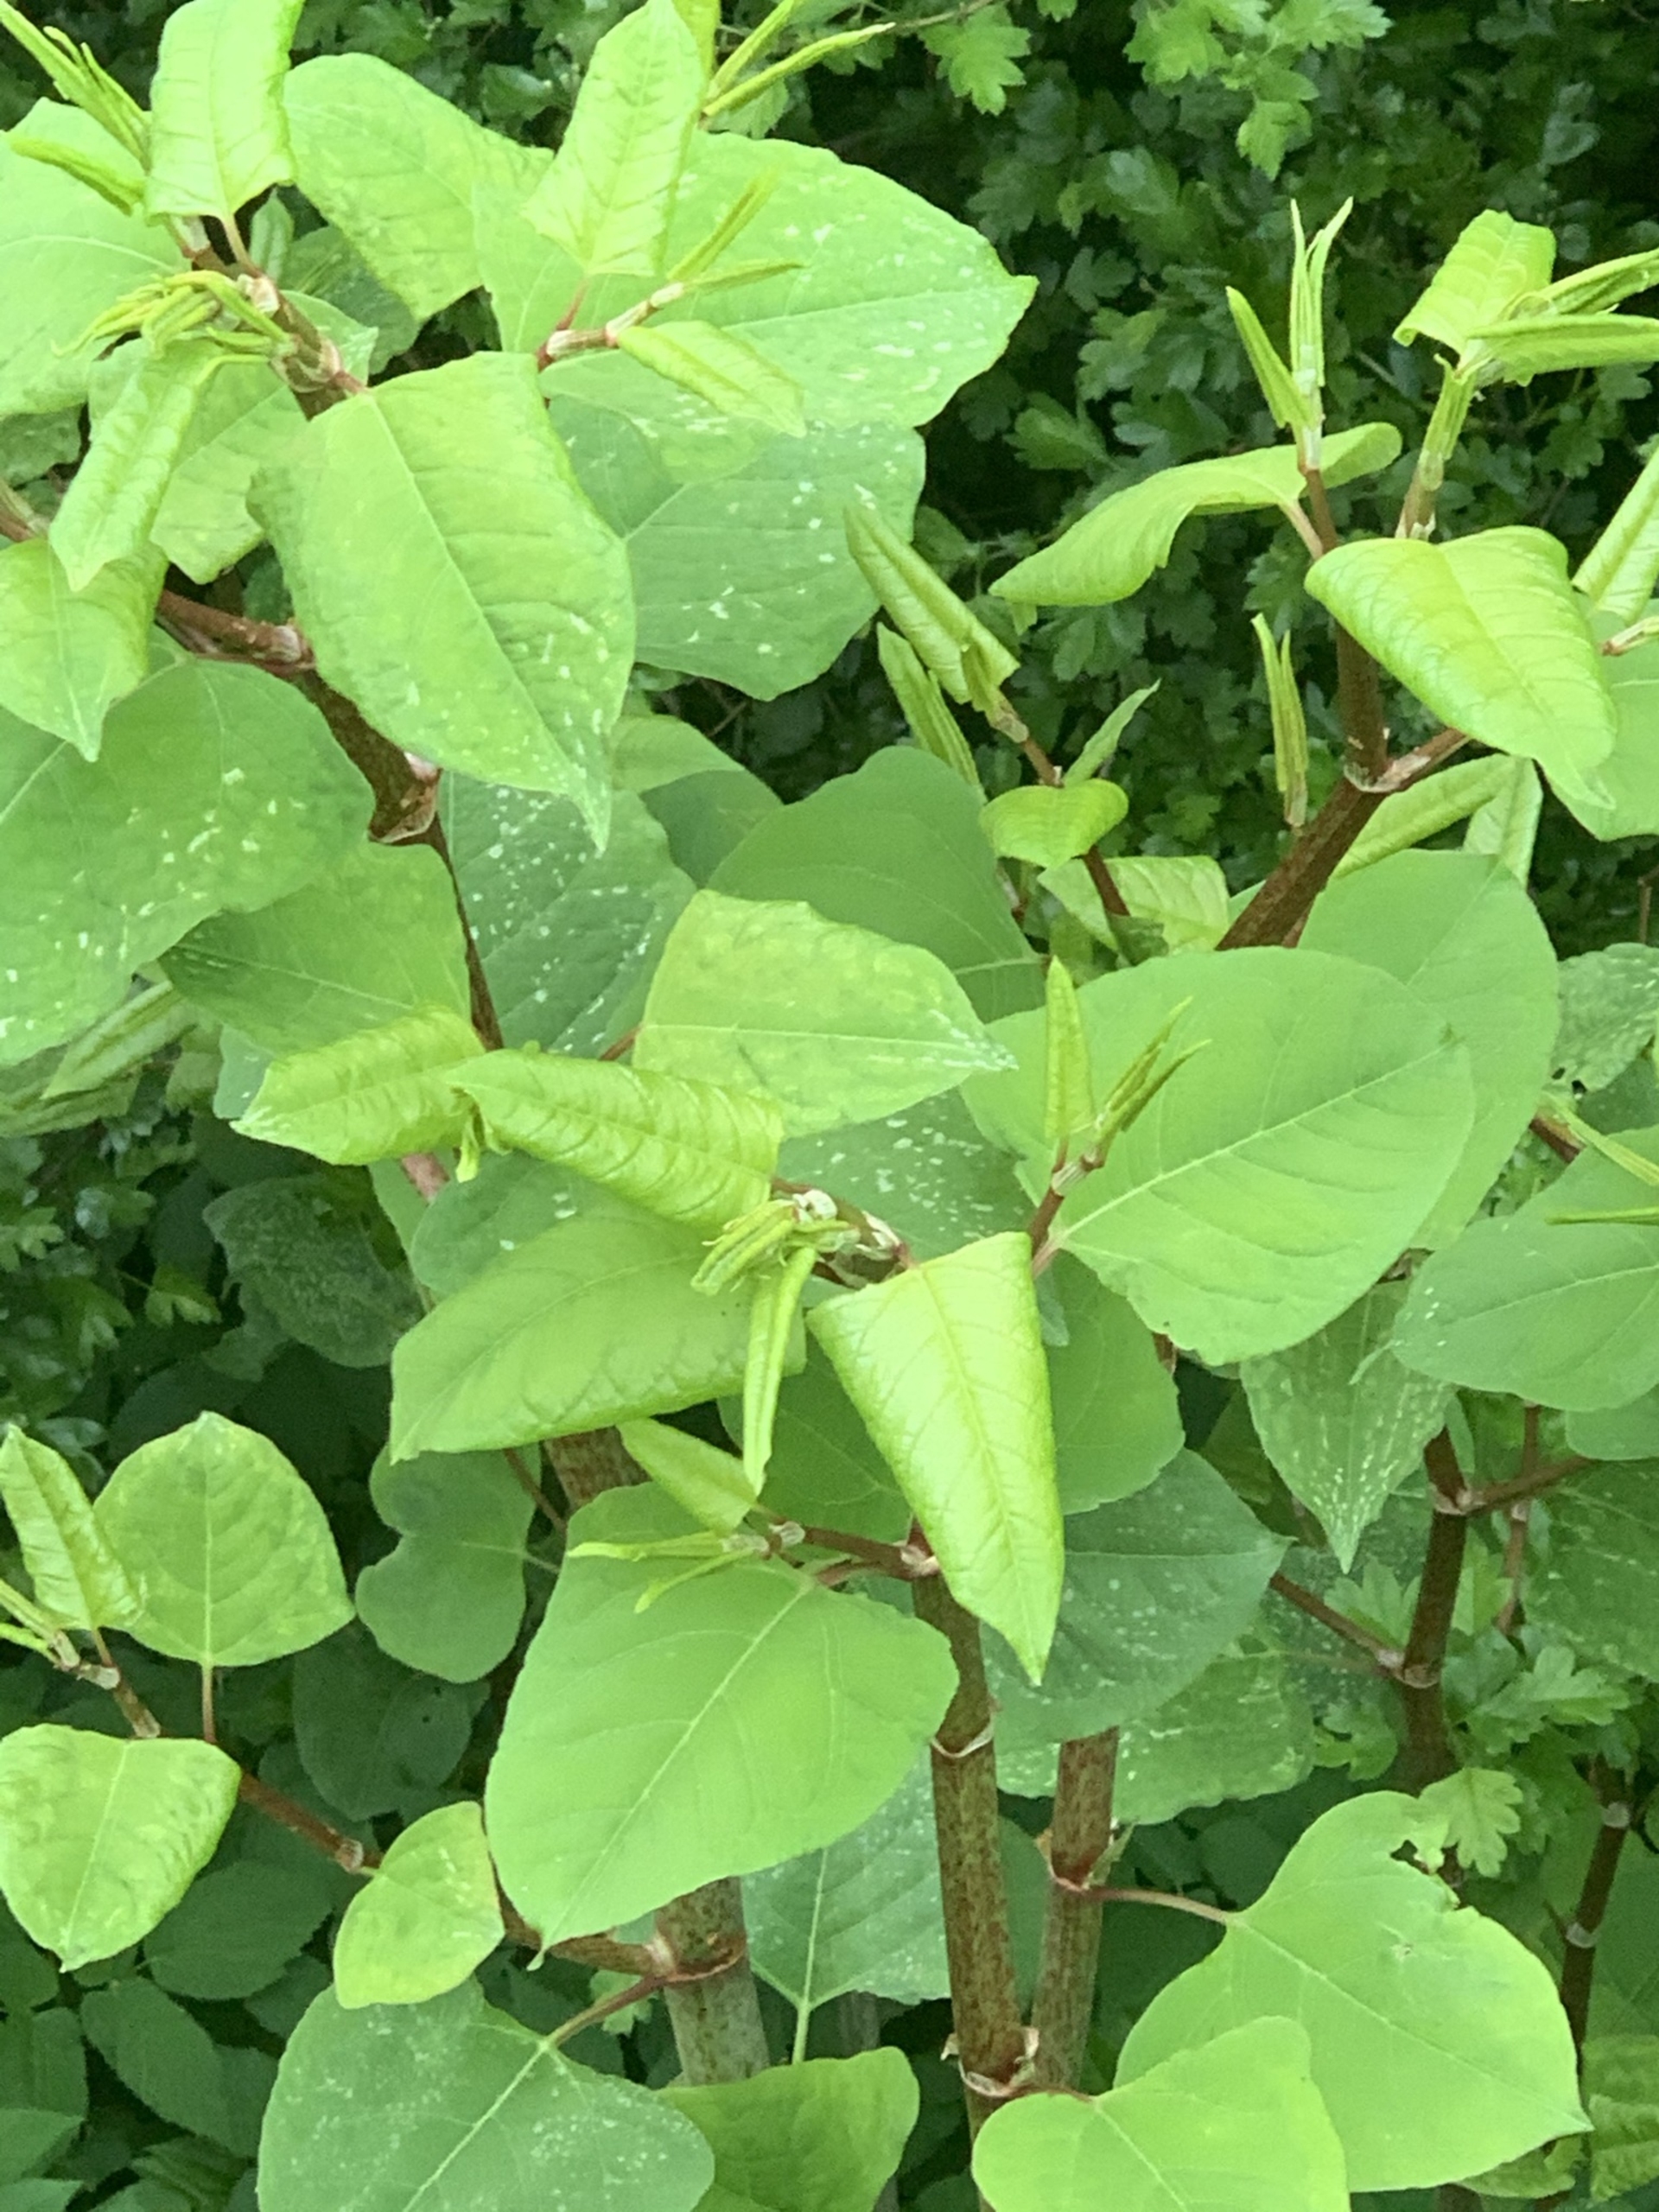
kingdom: Plantae
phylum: Tracheophyta
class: Magnoliopsida
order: Caryophyllales
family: Polygonaceae
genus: Reynoutria
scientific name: Reynoutria japonica
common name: Japan-pileurt
